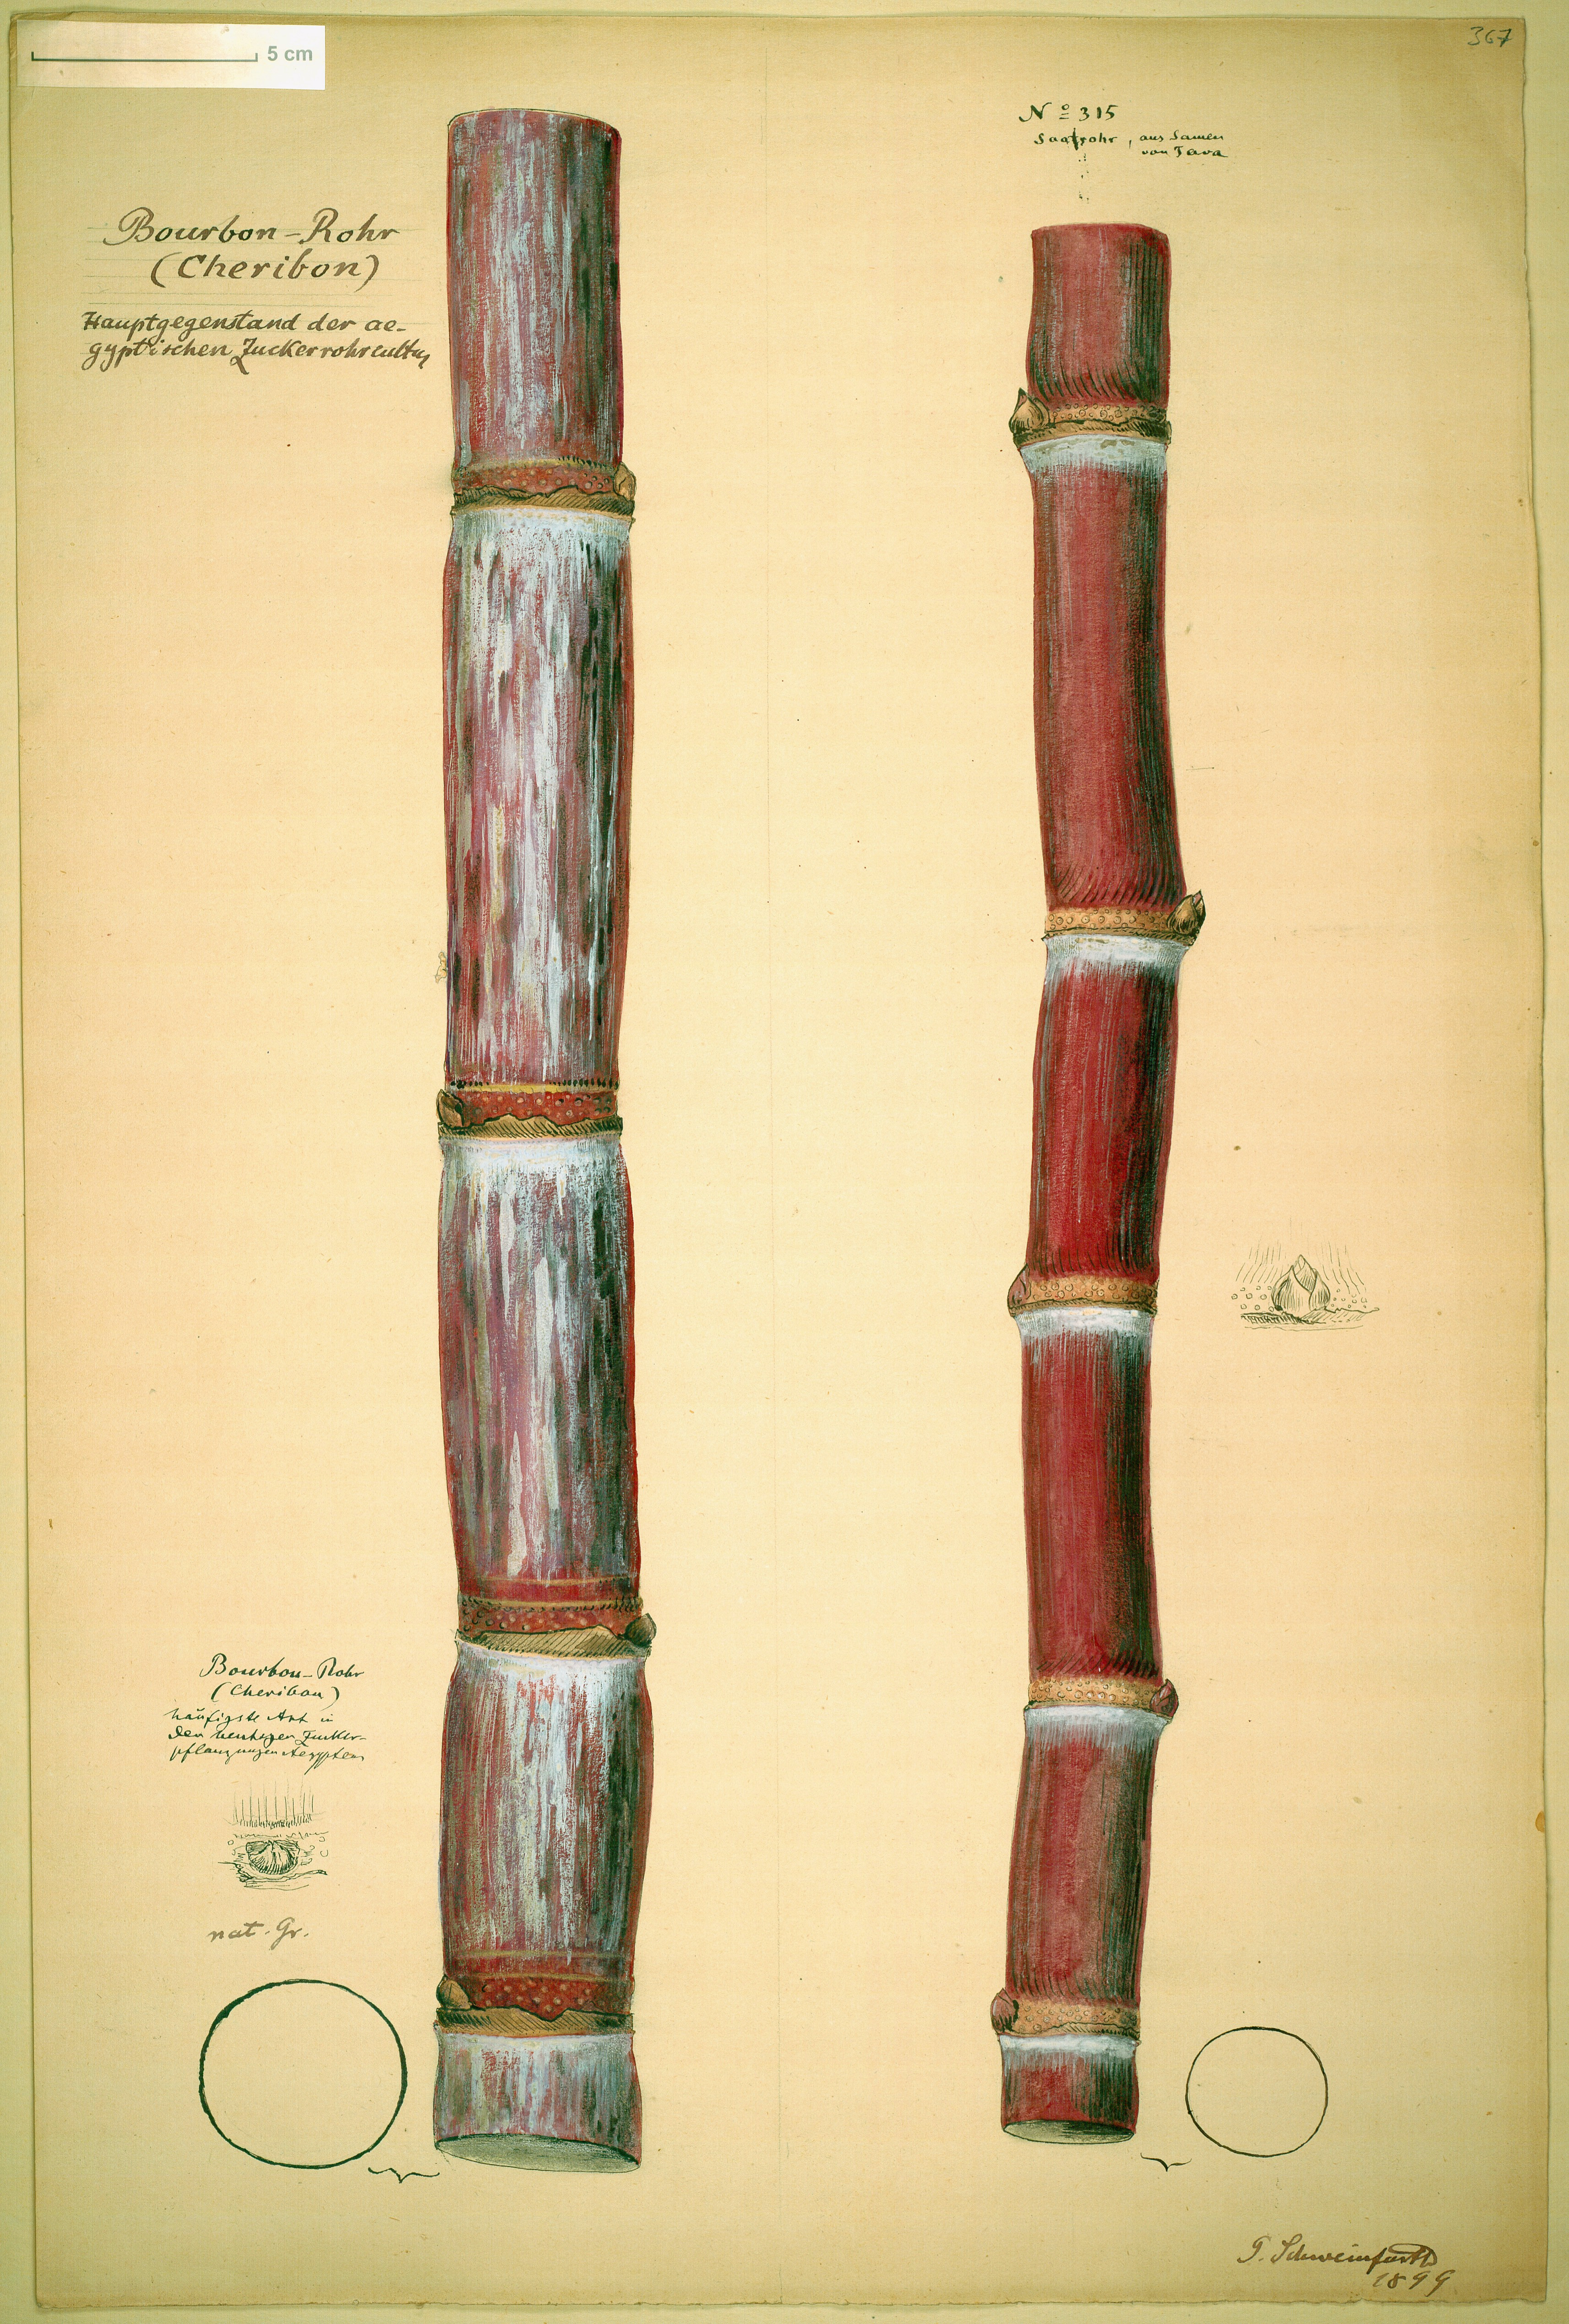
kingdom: Plantae
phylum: Tracheophyta
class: Liliopsida
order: Poales
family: Poaceae
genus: Saccharum
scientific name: Saccharum officinarum
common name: Sugarcane
